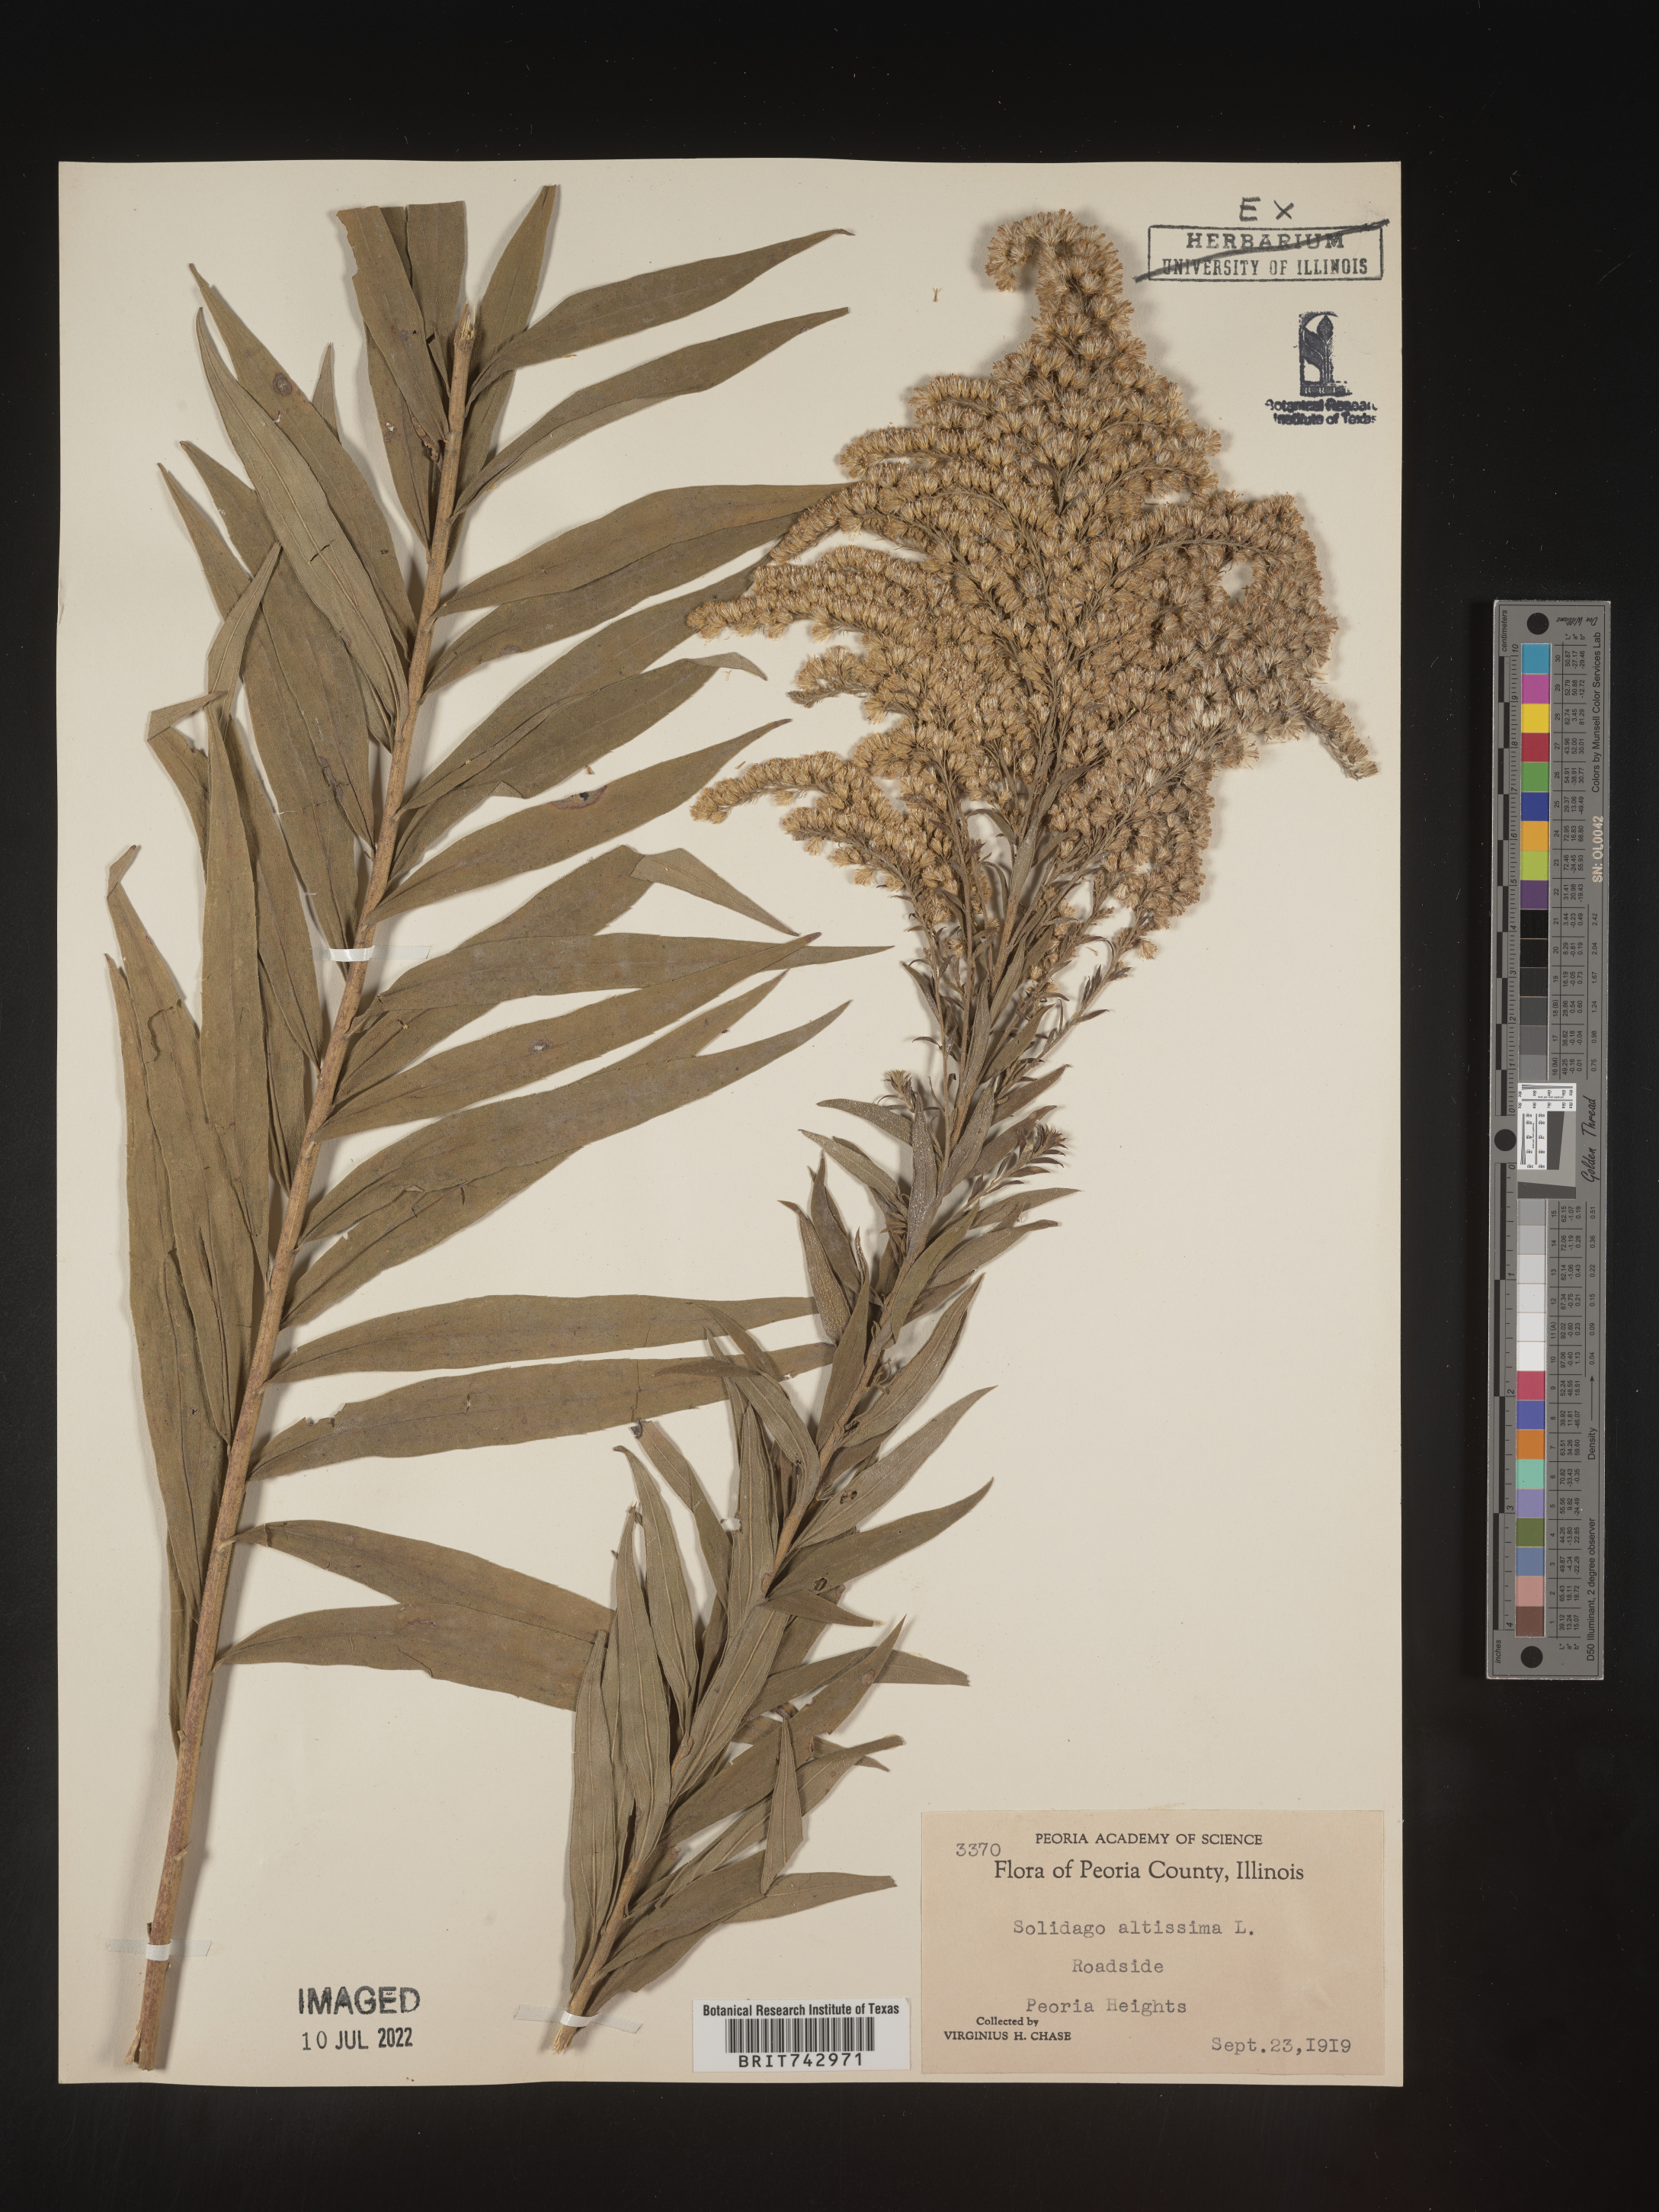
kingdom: Plantae
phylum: Tracheophyta
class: Magnoliopsida
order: Asterales
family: Asteraceae
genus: Solidago
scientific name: Solidago altissima
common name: Late goldenrod
